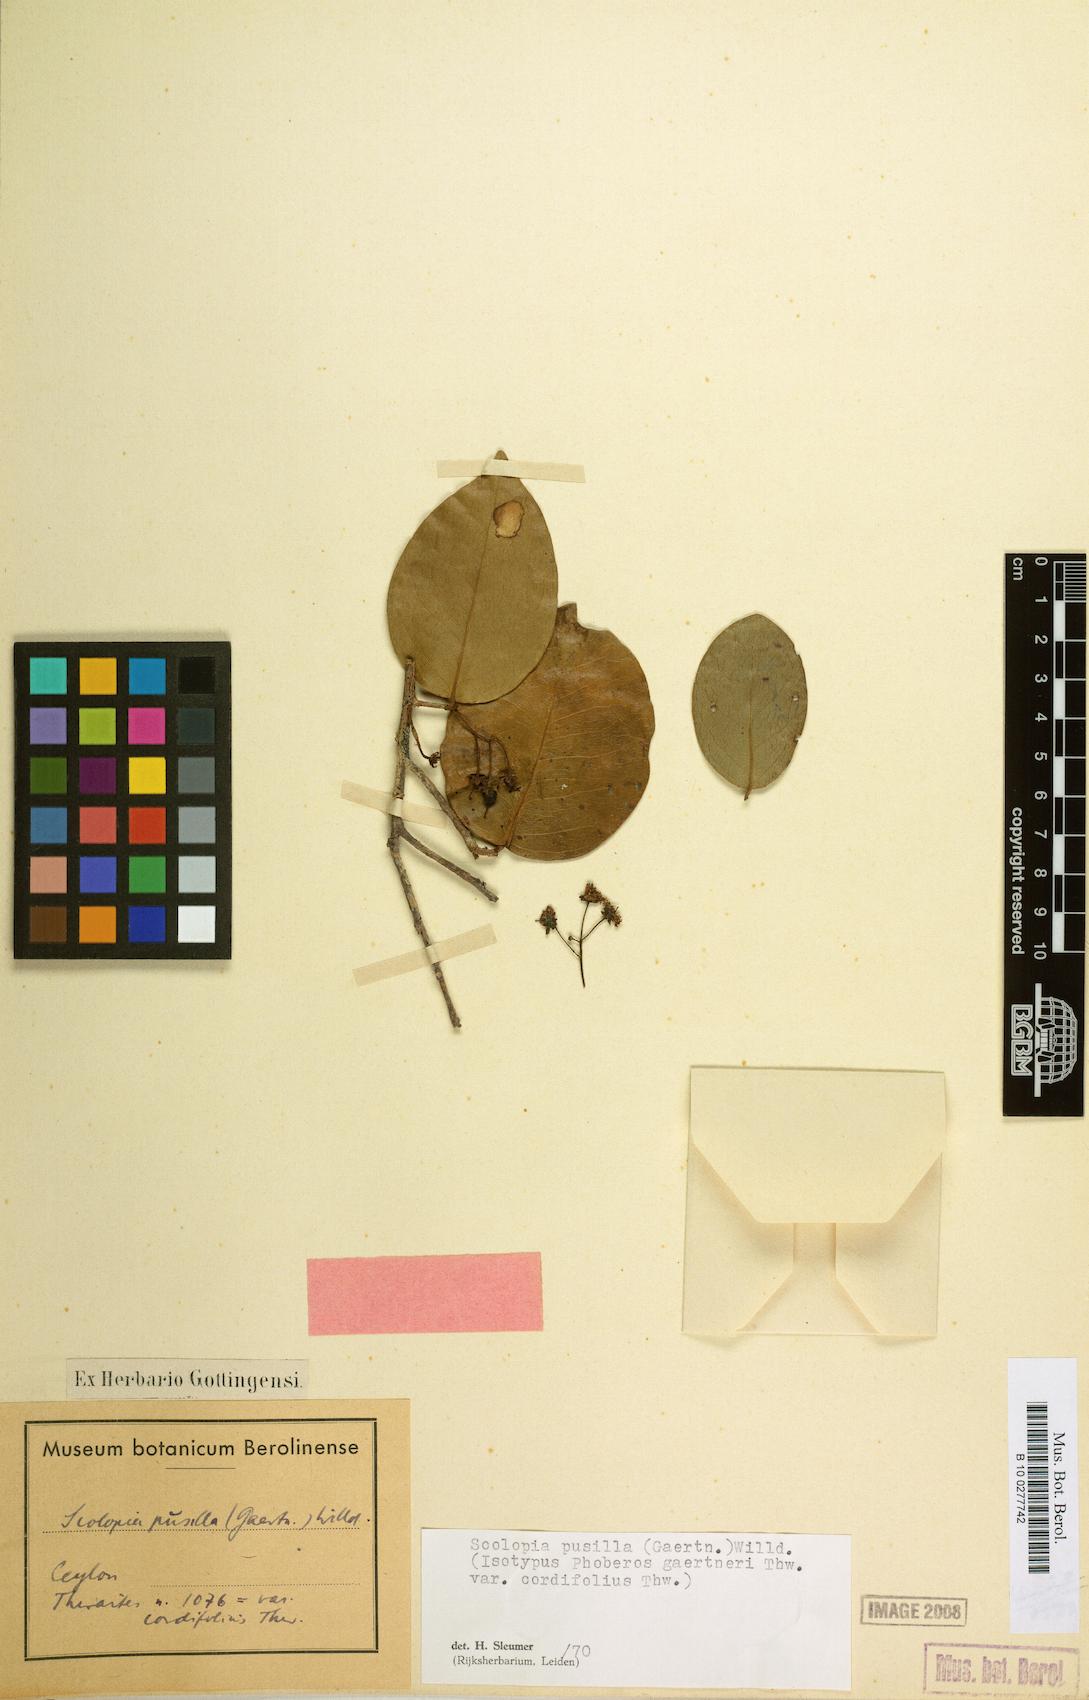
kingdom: Plantae
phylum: Tracheophyta
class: Magnoliopsida
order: Malpighiales
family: Salicaceae
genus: Scolopia
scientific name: Scolopia pusilla
